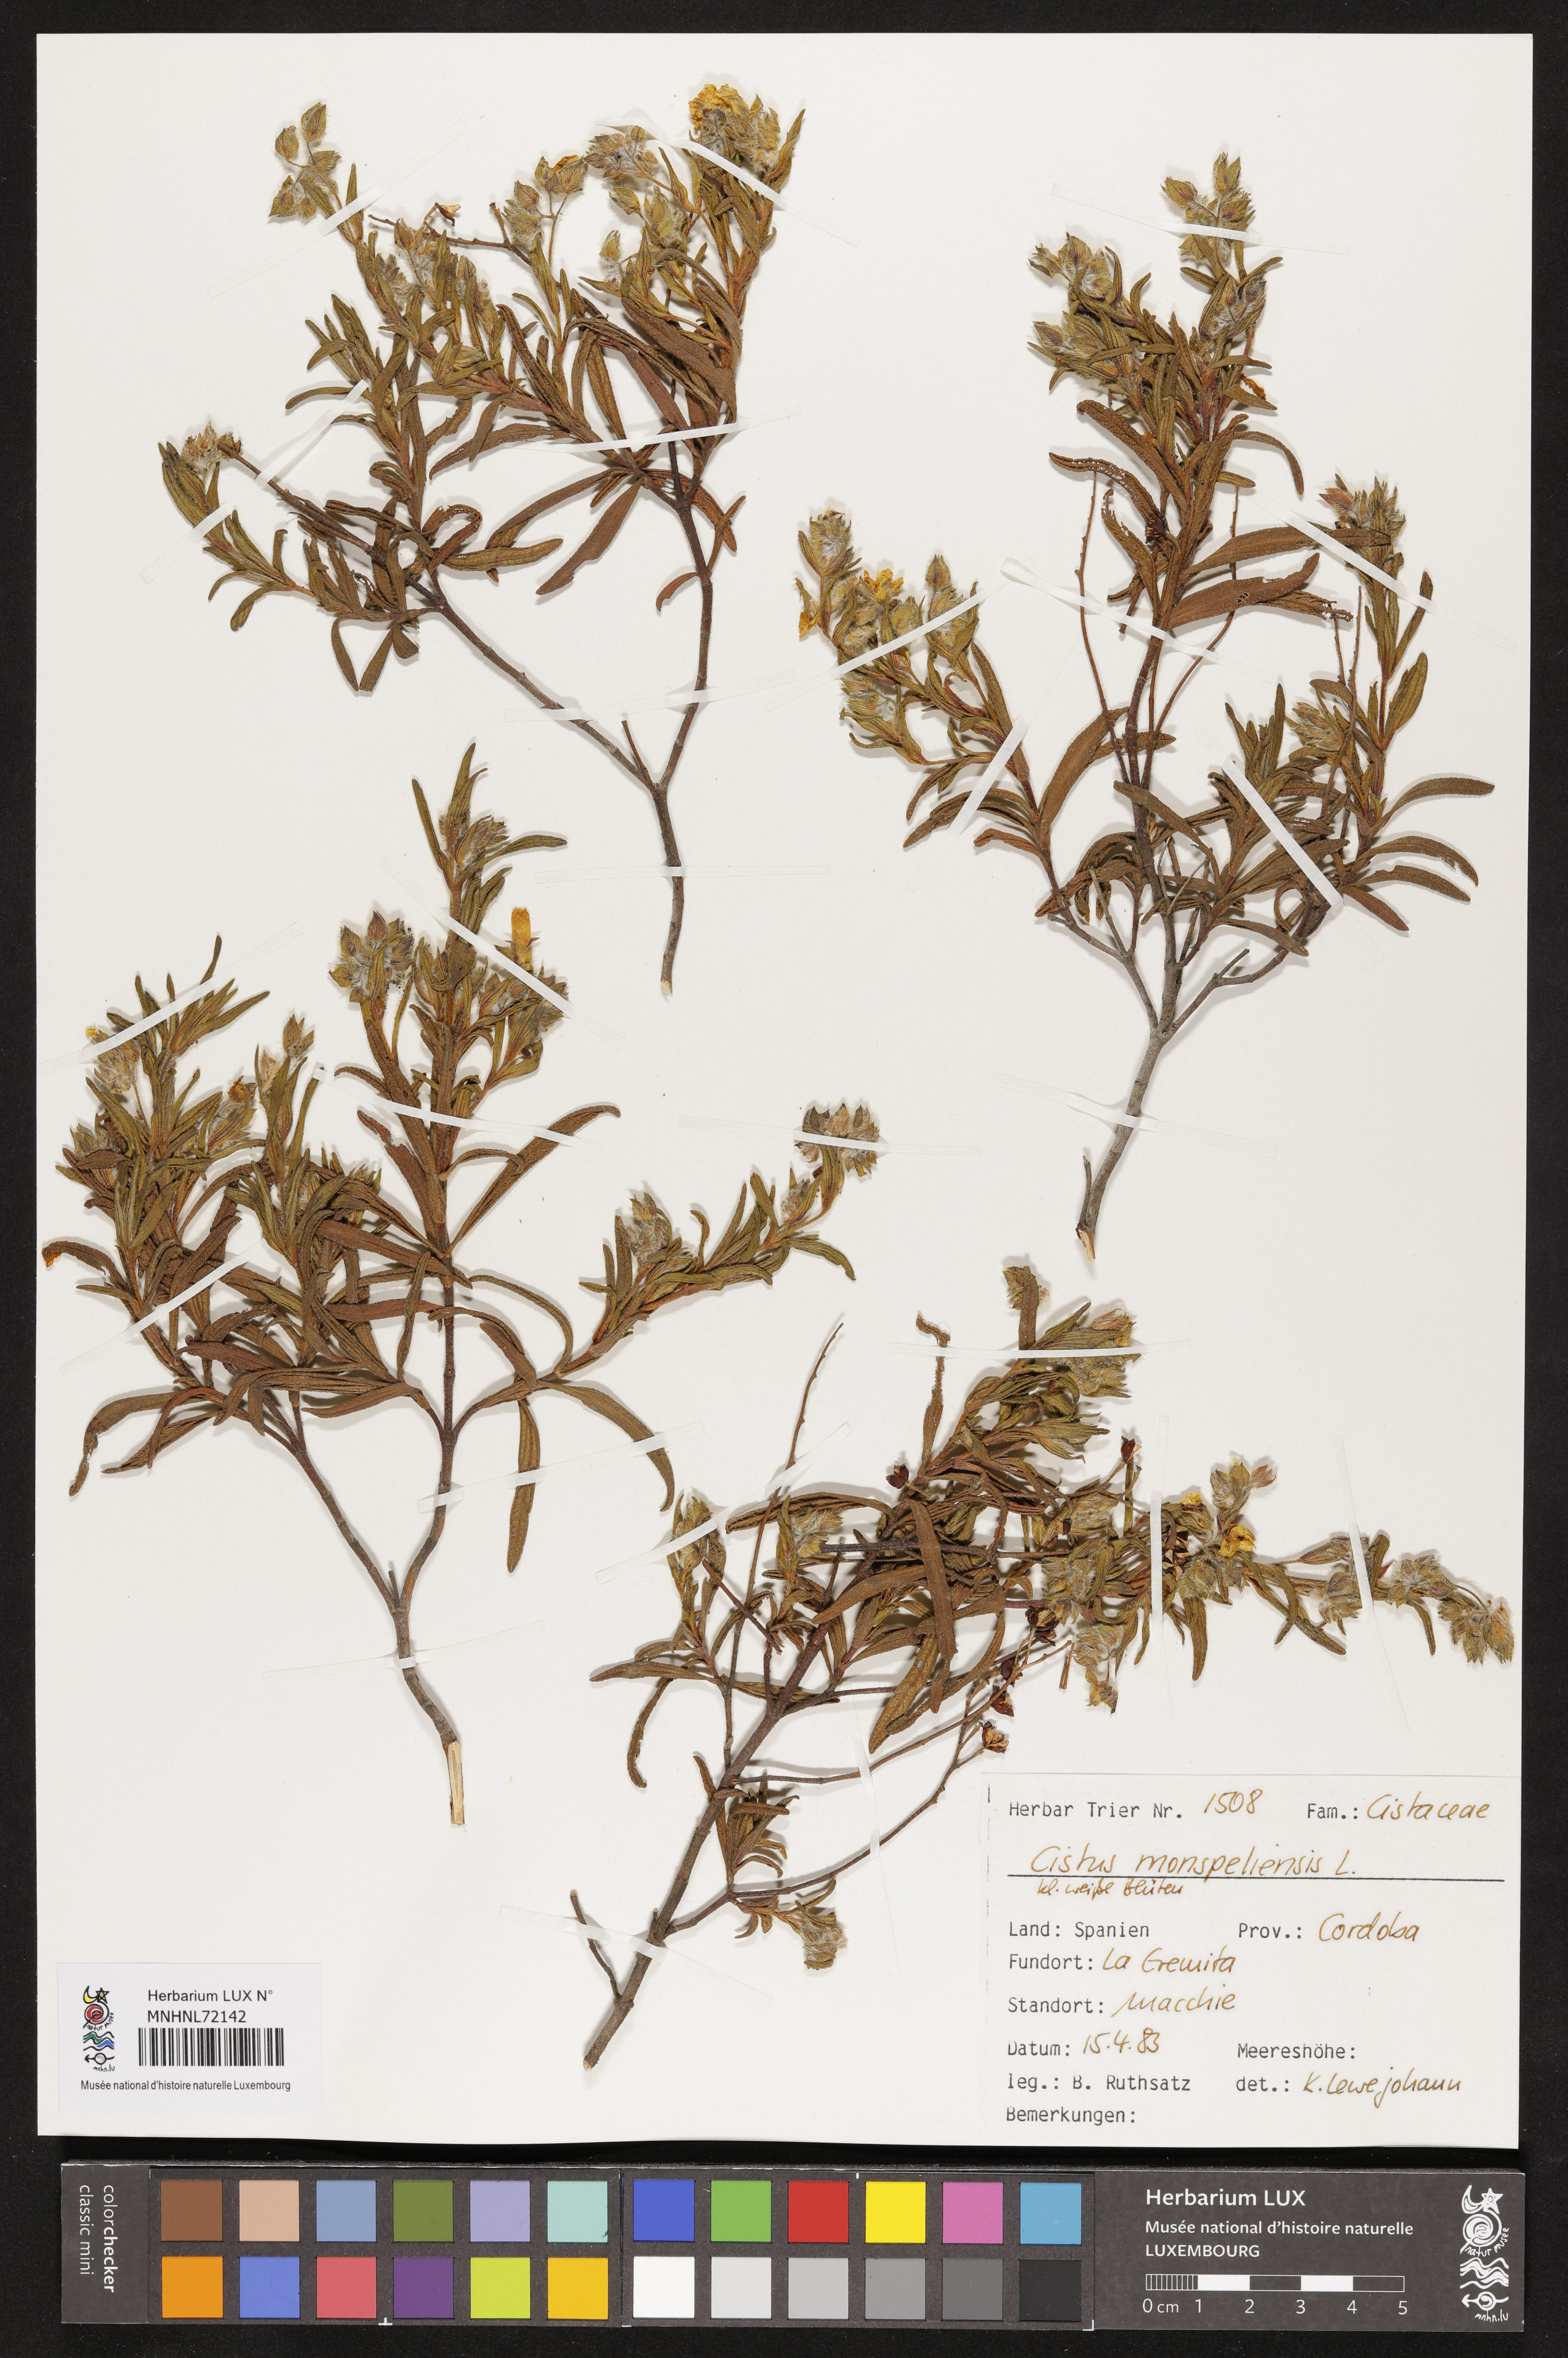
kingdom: Plantae
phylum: Tracheophyta
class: Magnoliopsida
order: Malvales
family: Cistaceae
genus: Cistus
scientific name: Cistus monspeliensis
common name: Montpelier cistus
